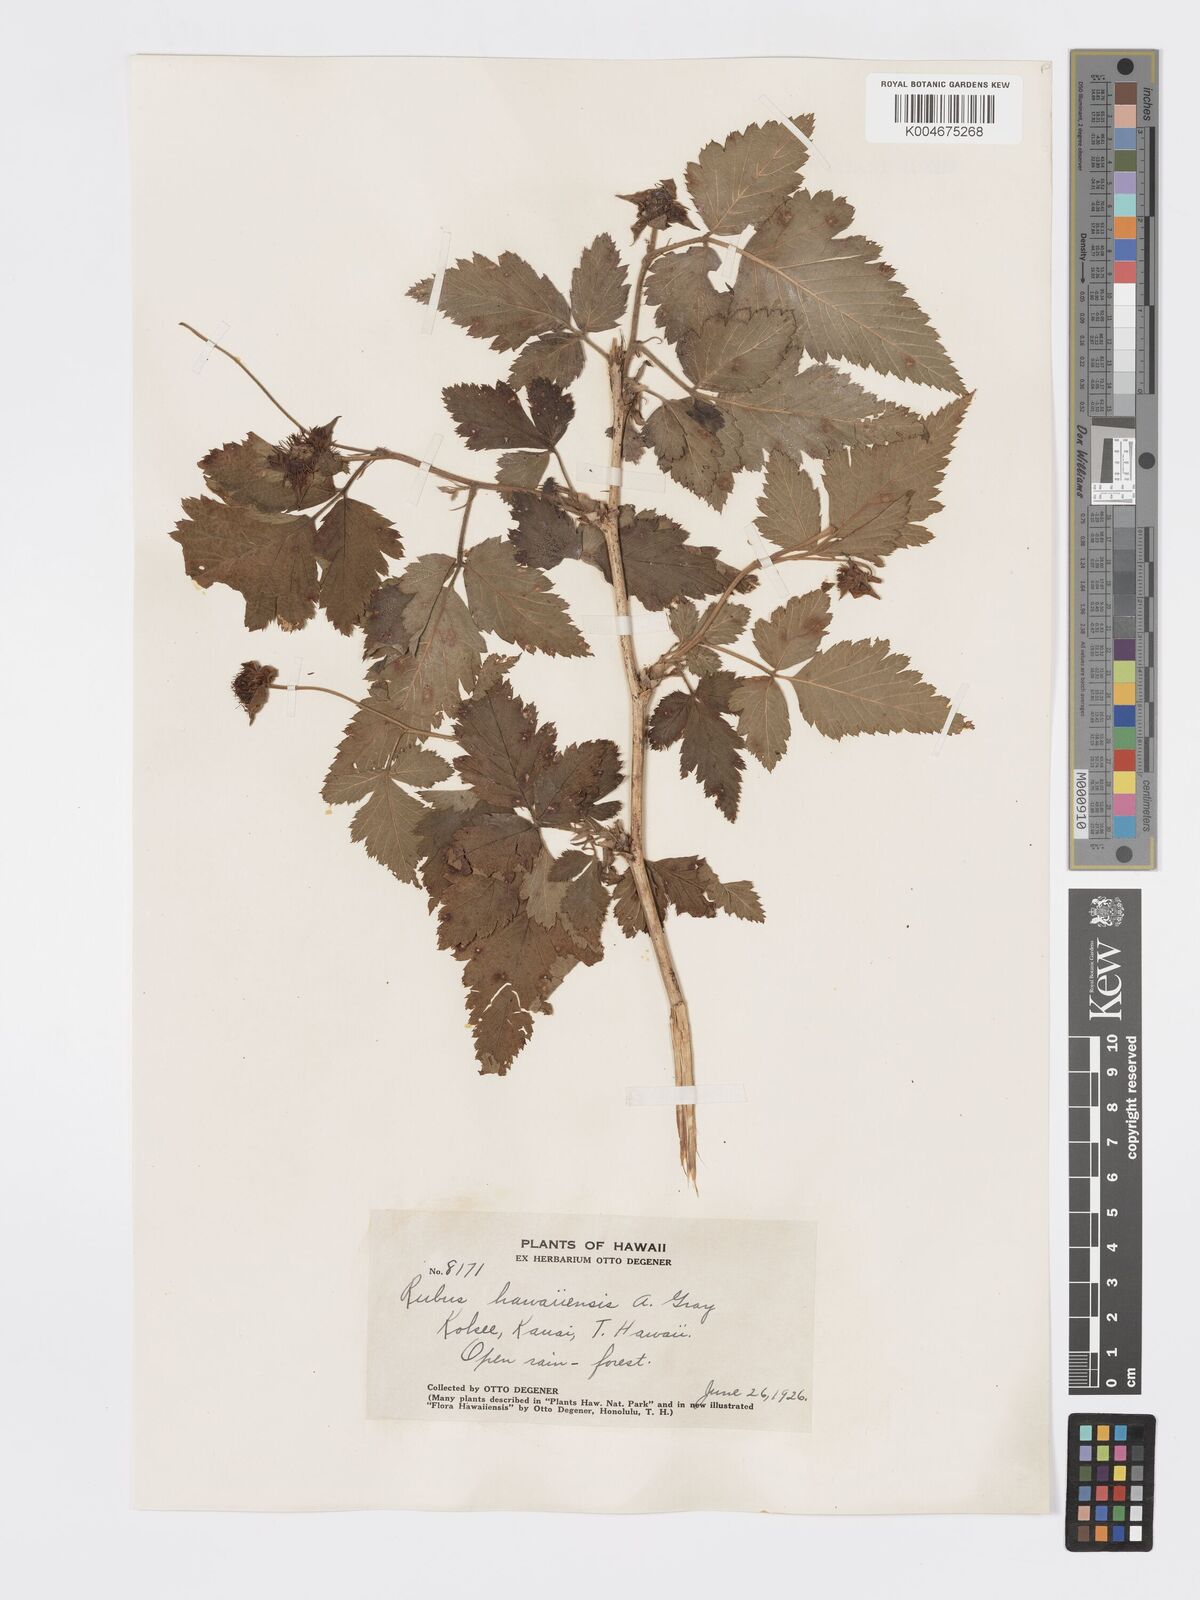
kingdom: Plantae
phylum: Tracheophyta
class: Magnoliopsida
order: Rosales
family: Rosaceae
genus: Rubus
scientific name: Rubus hawaiensis
